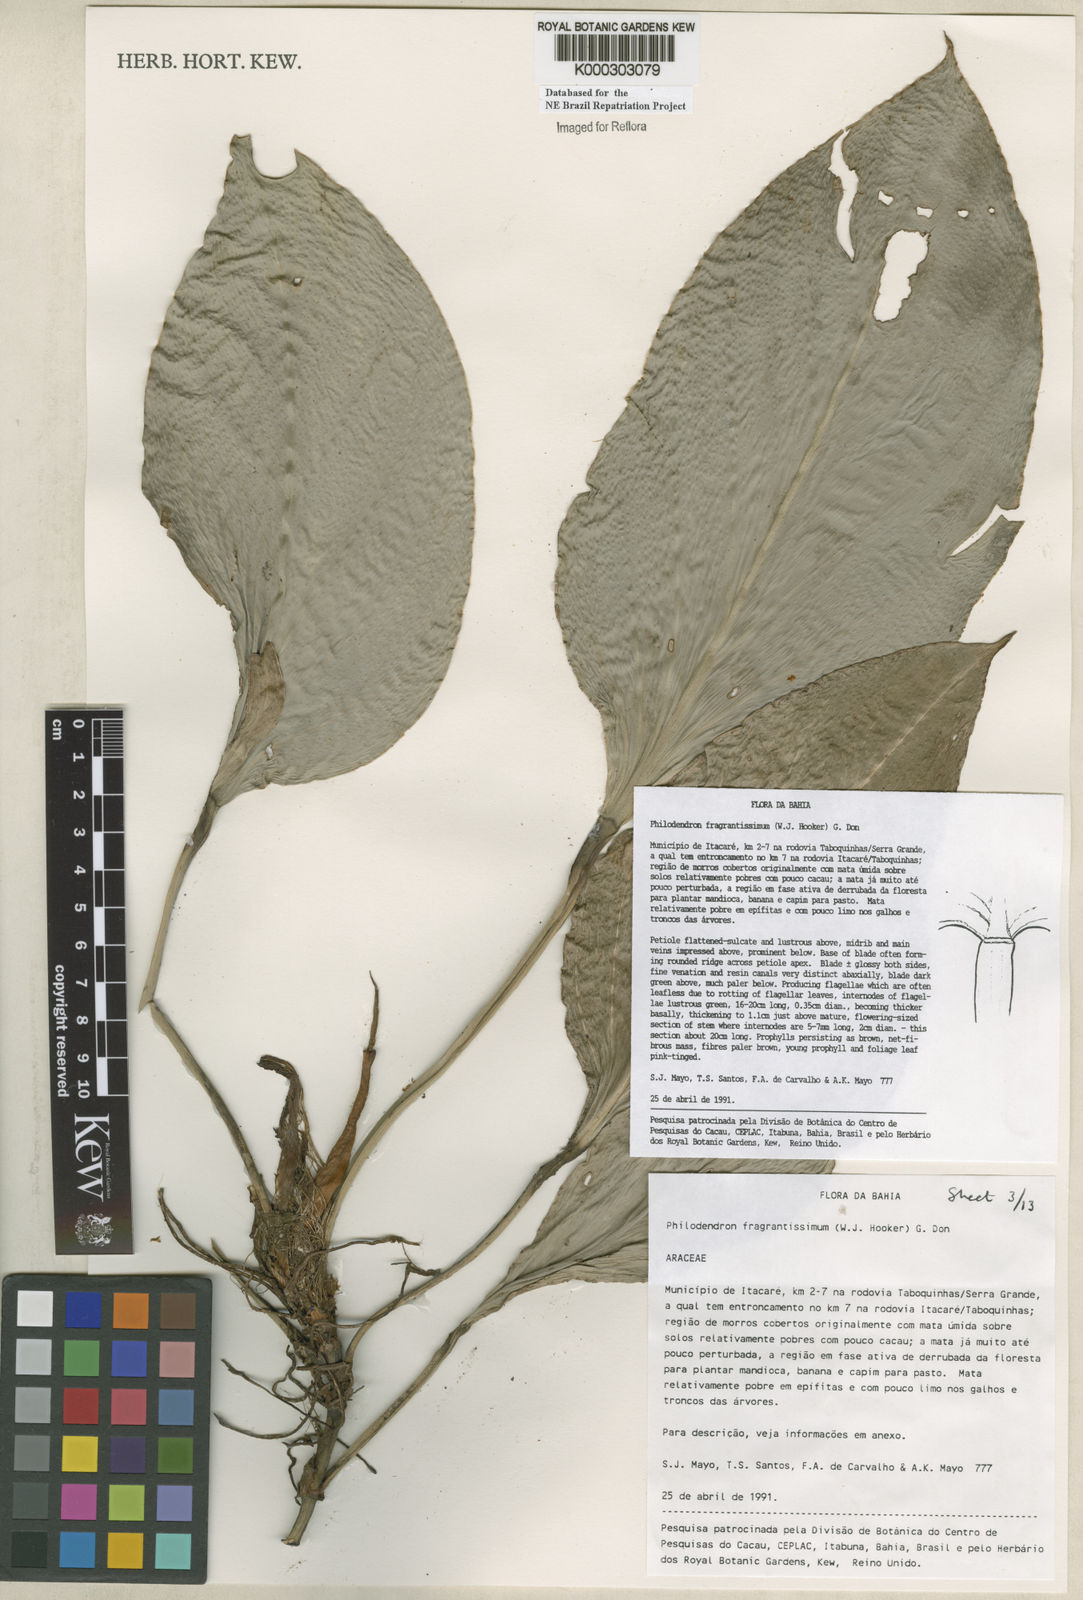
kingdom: Plantae
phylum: Tracheophyta
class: Liliopsida
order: Alismatales
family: Araceae
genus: Philodendron
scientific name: Philodendron fragrantissimum
